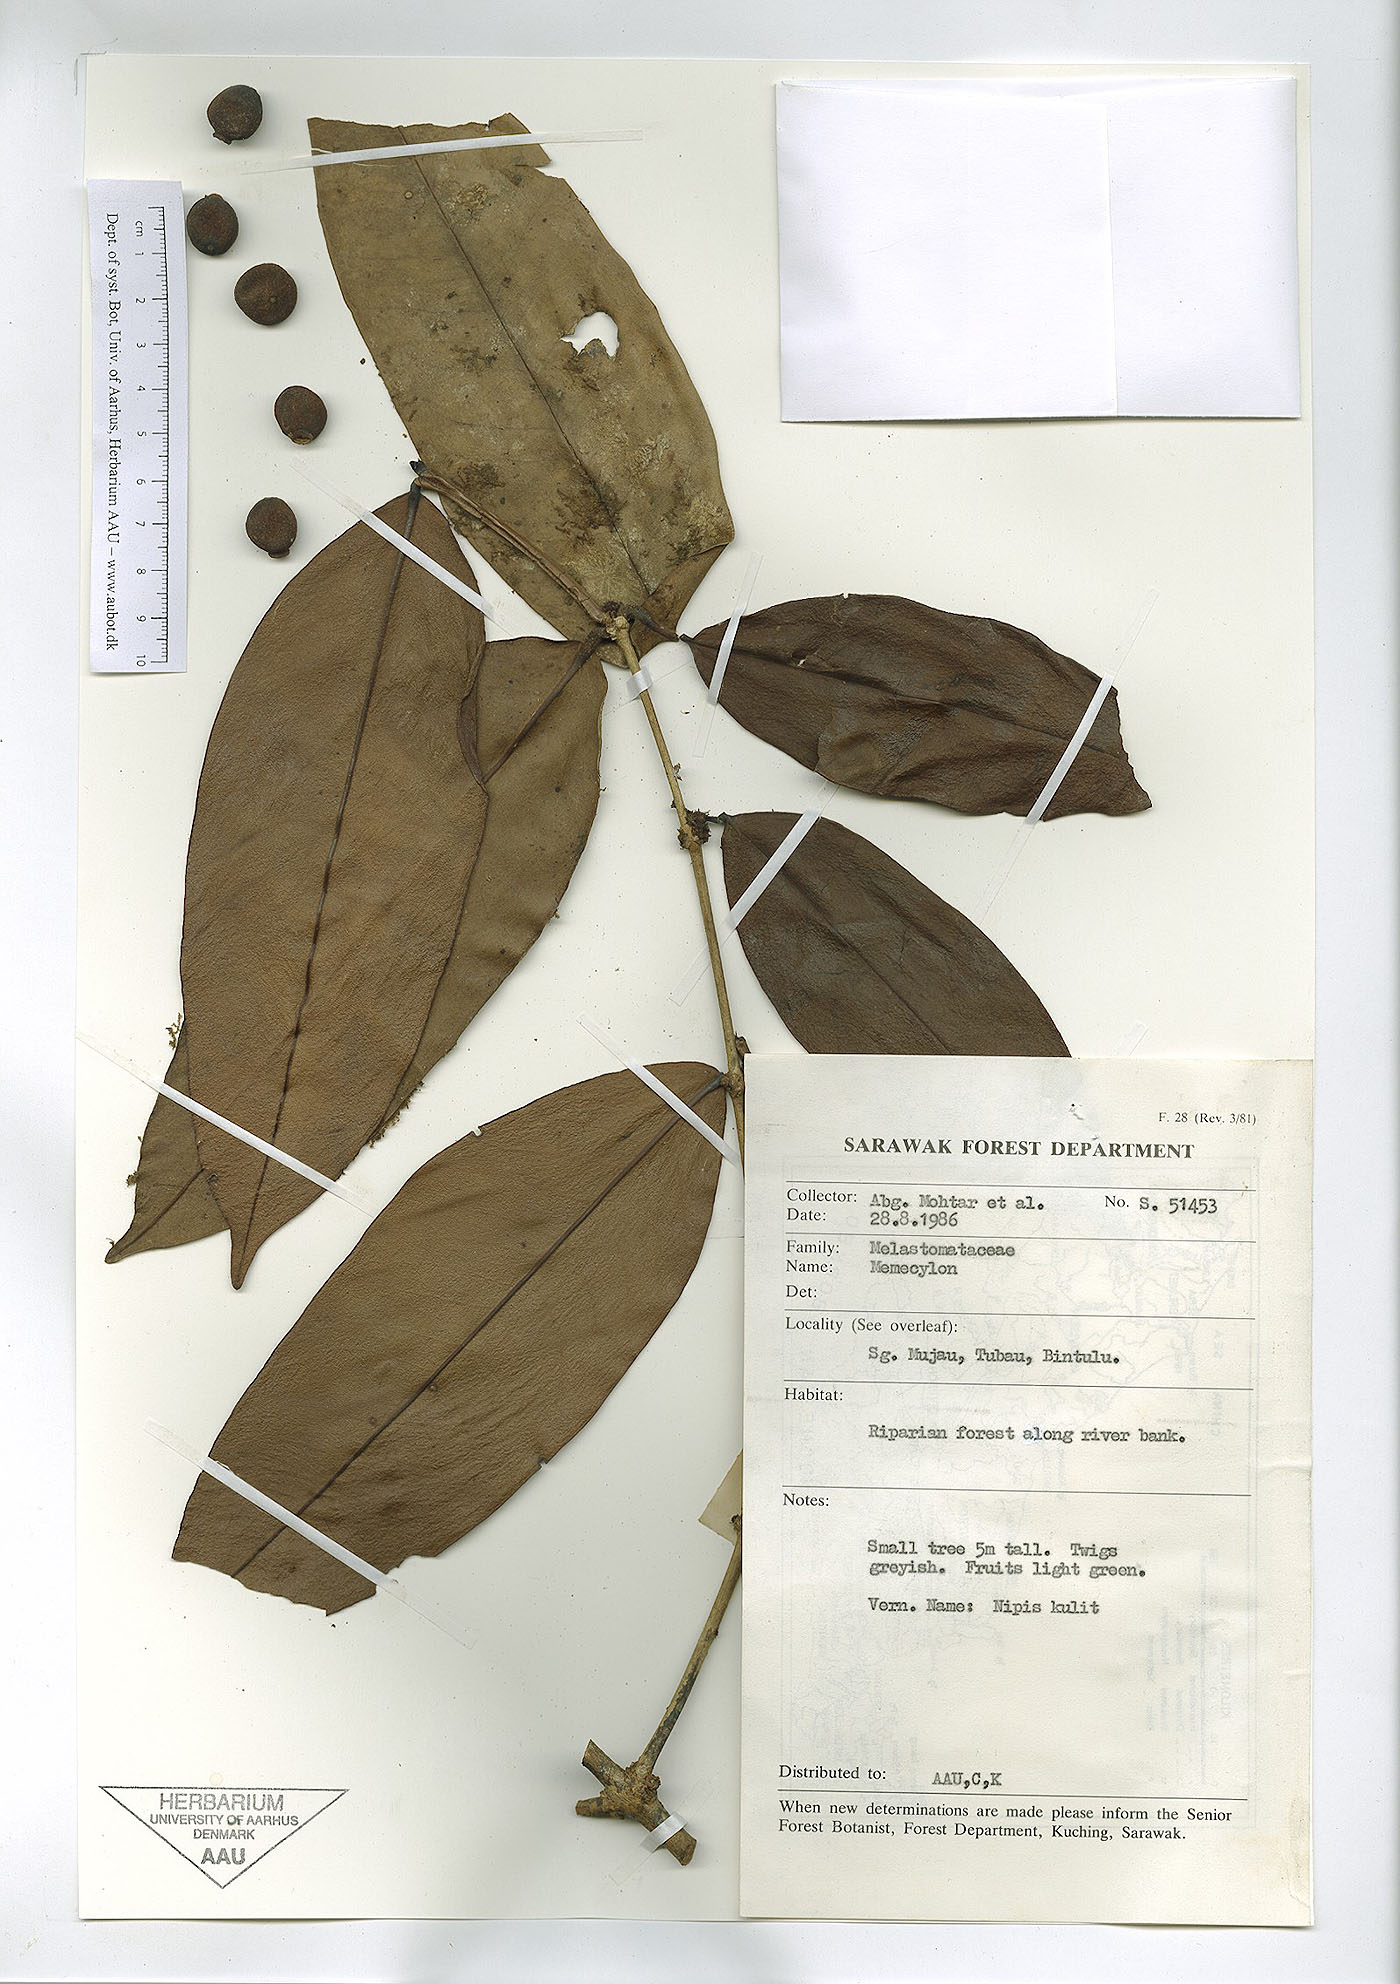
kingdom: Plantae
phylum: Tracheophyta
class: Magnoliopsida
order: Myrtales
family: Melastomataceae
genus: Memecylon
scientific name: Memecylon
